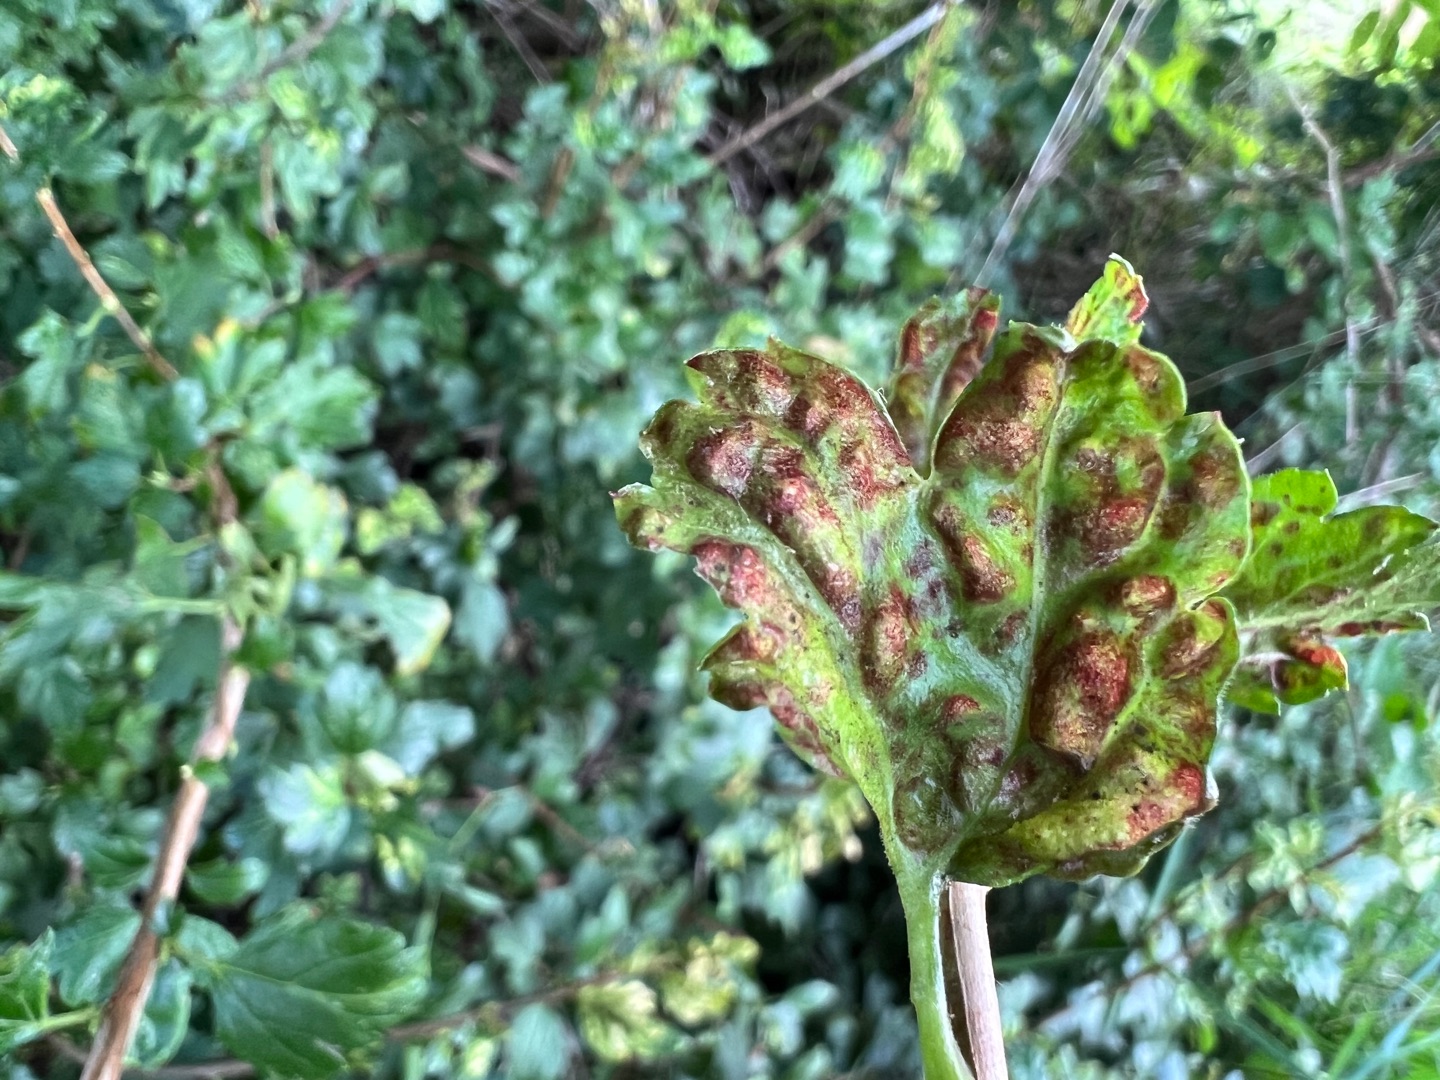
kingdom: Animalia
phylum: Arthropoda
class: Insecta
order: Hemiptera
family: Aphididae
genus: Cryptomyzus
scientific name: Cryptomyzus korschelti
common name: Fjeldribsbladlus
